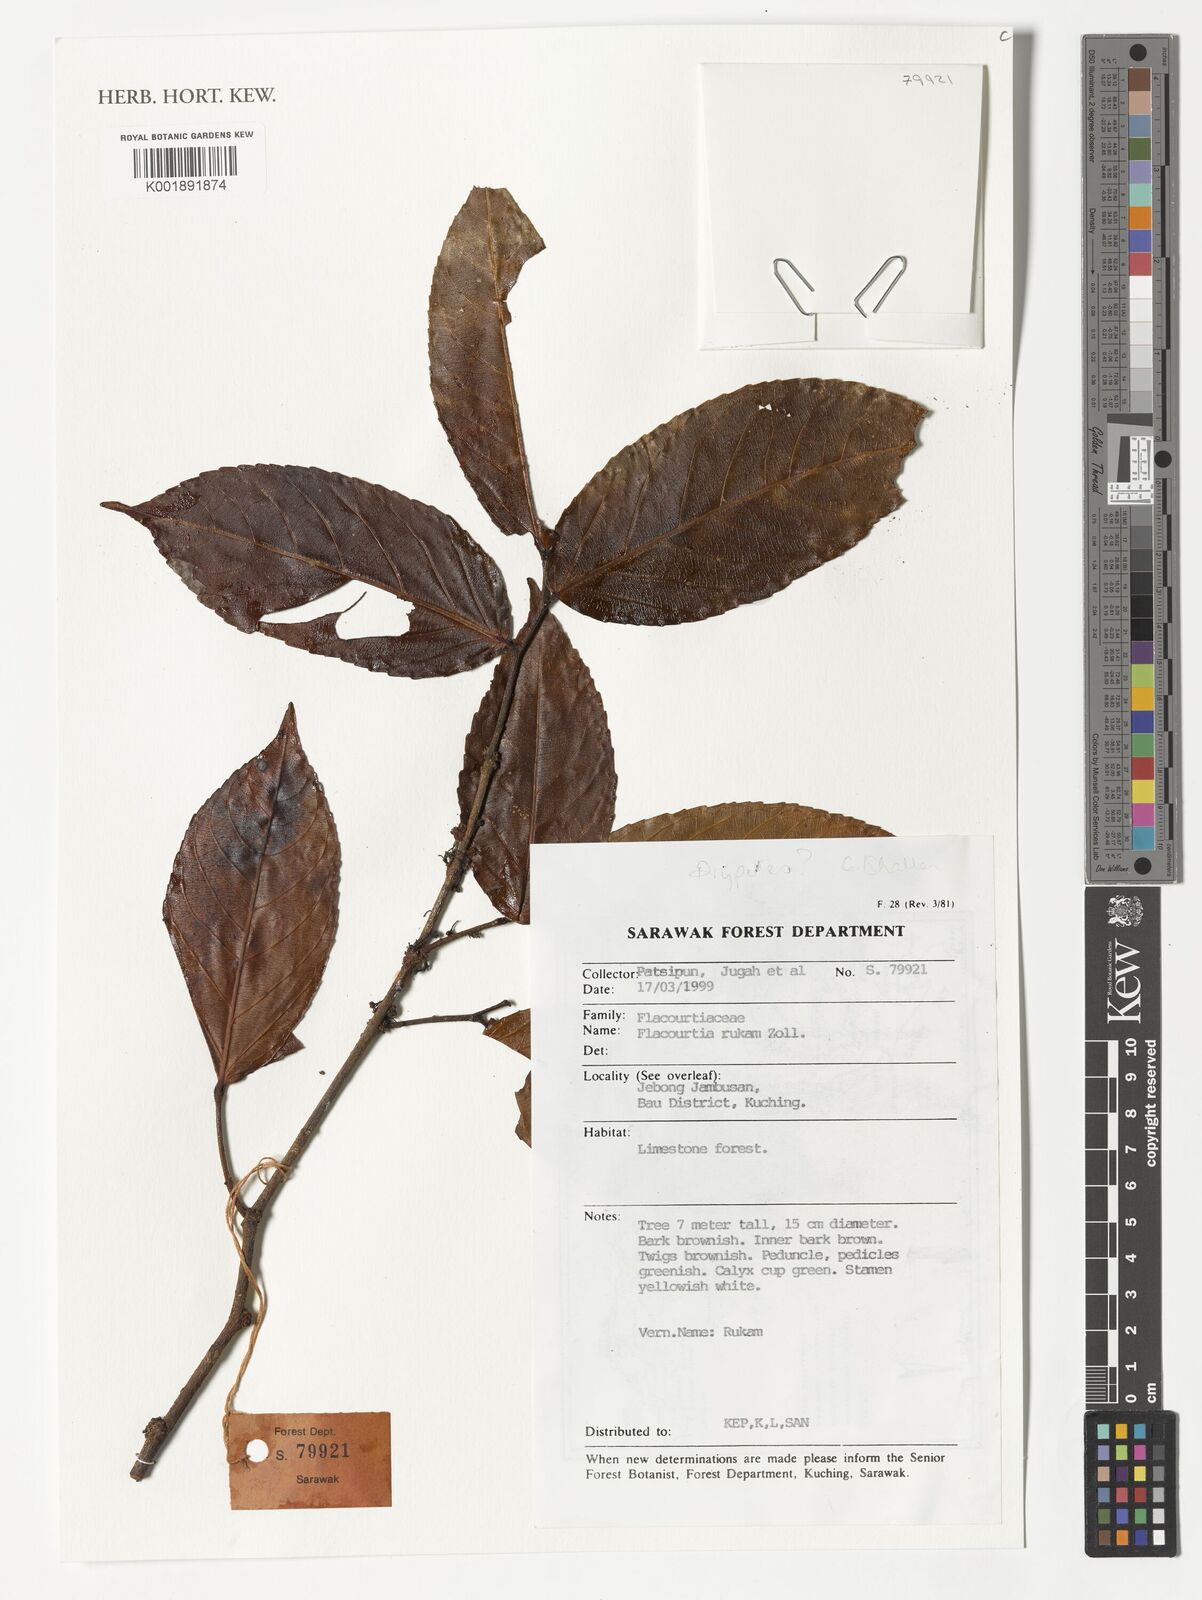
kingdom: Plantae
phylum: Tracheophyta
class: Magnoliopsida
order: Malpighiales
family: Salicaceae
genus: Flacourtia
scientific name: Flacourtia rukam
